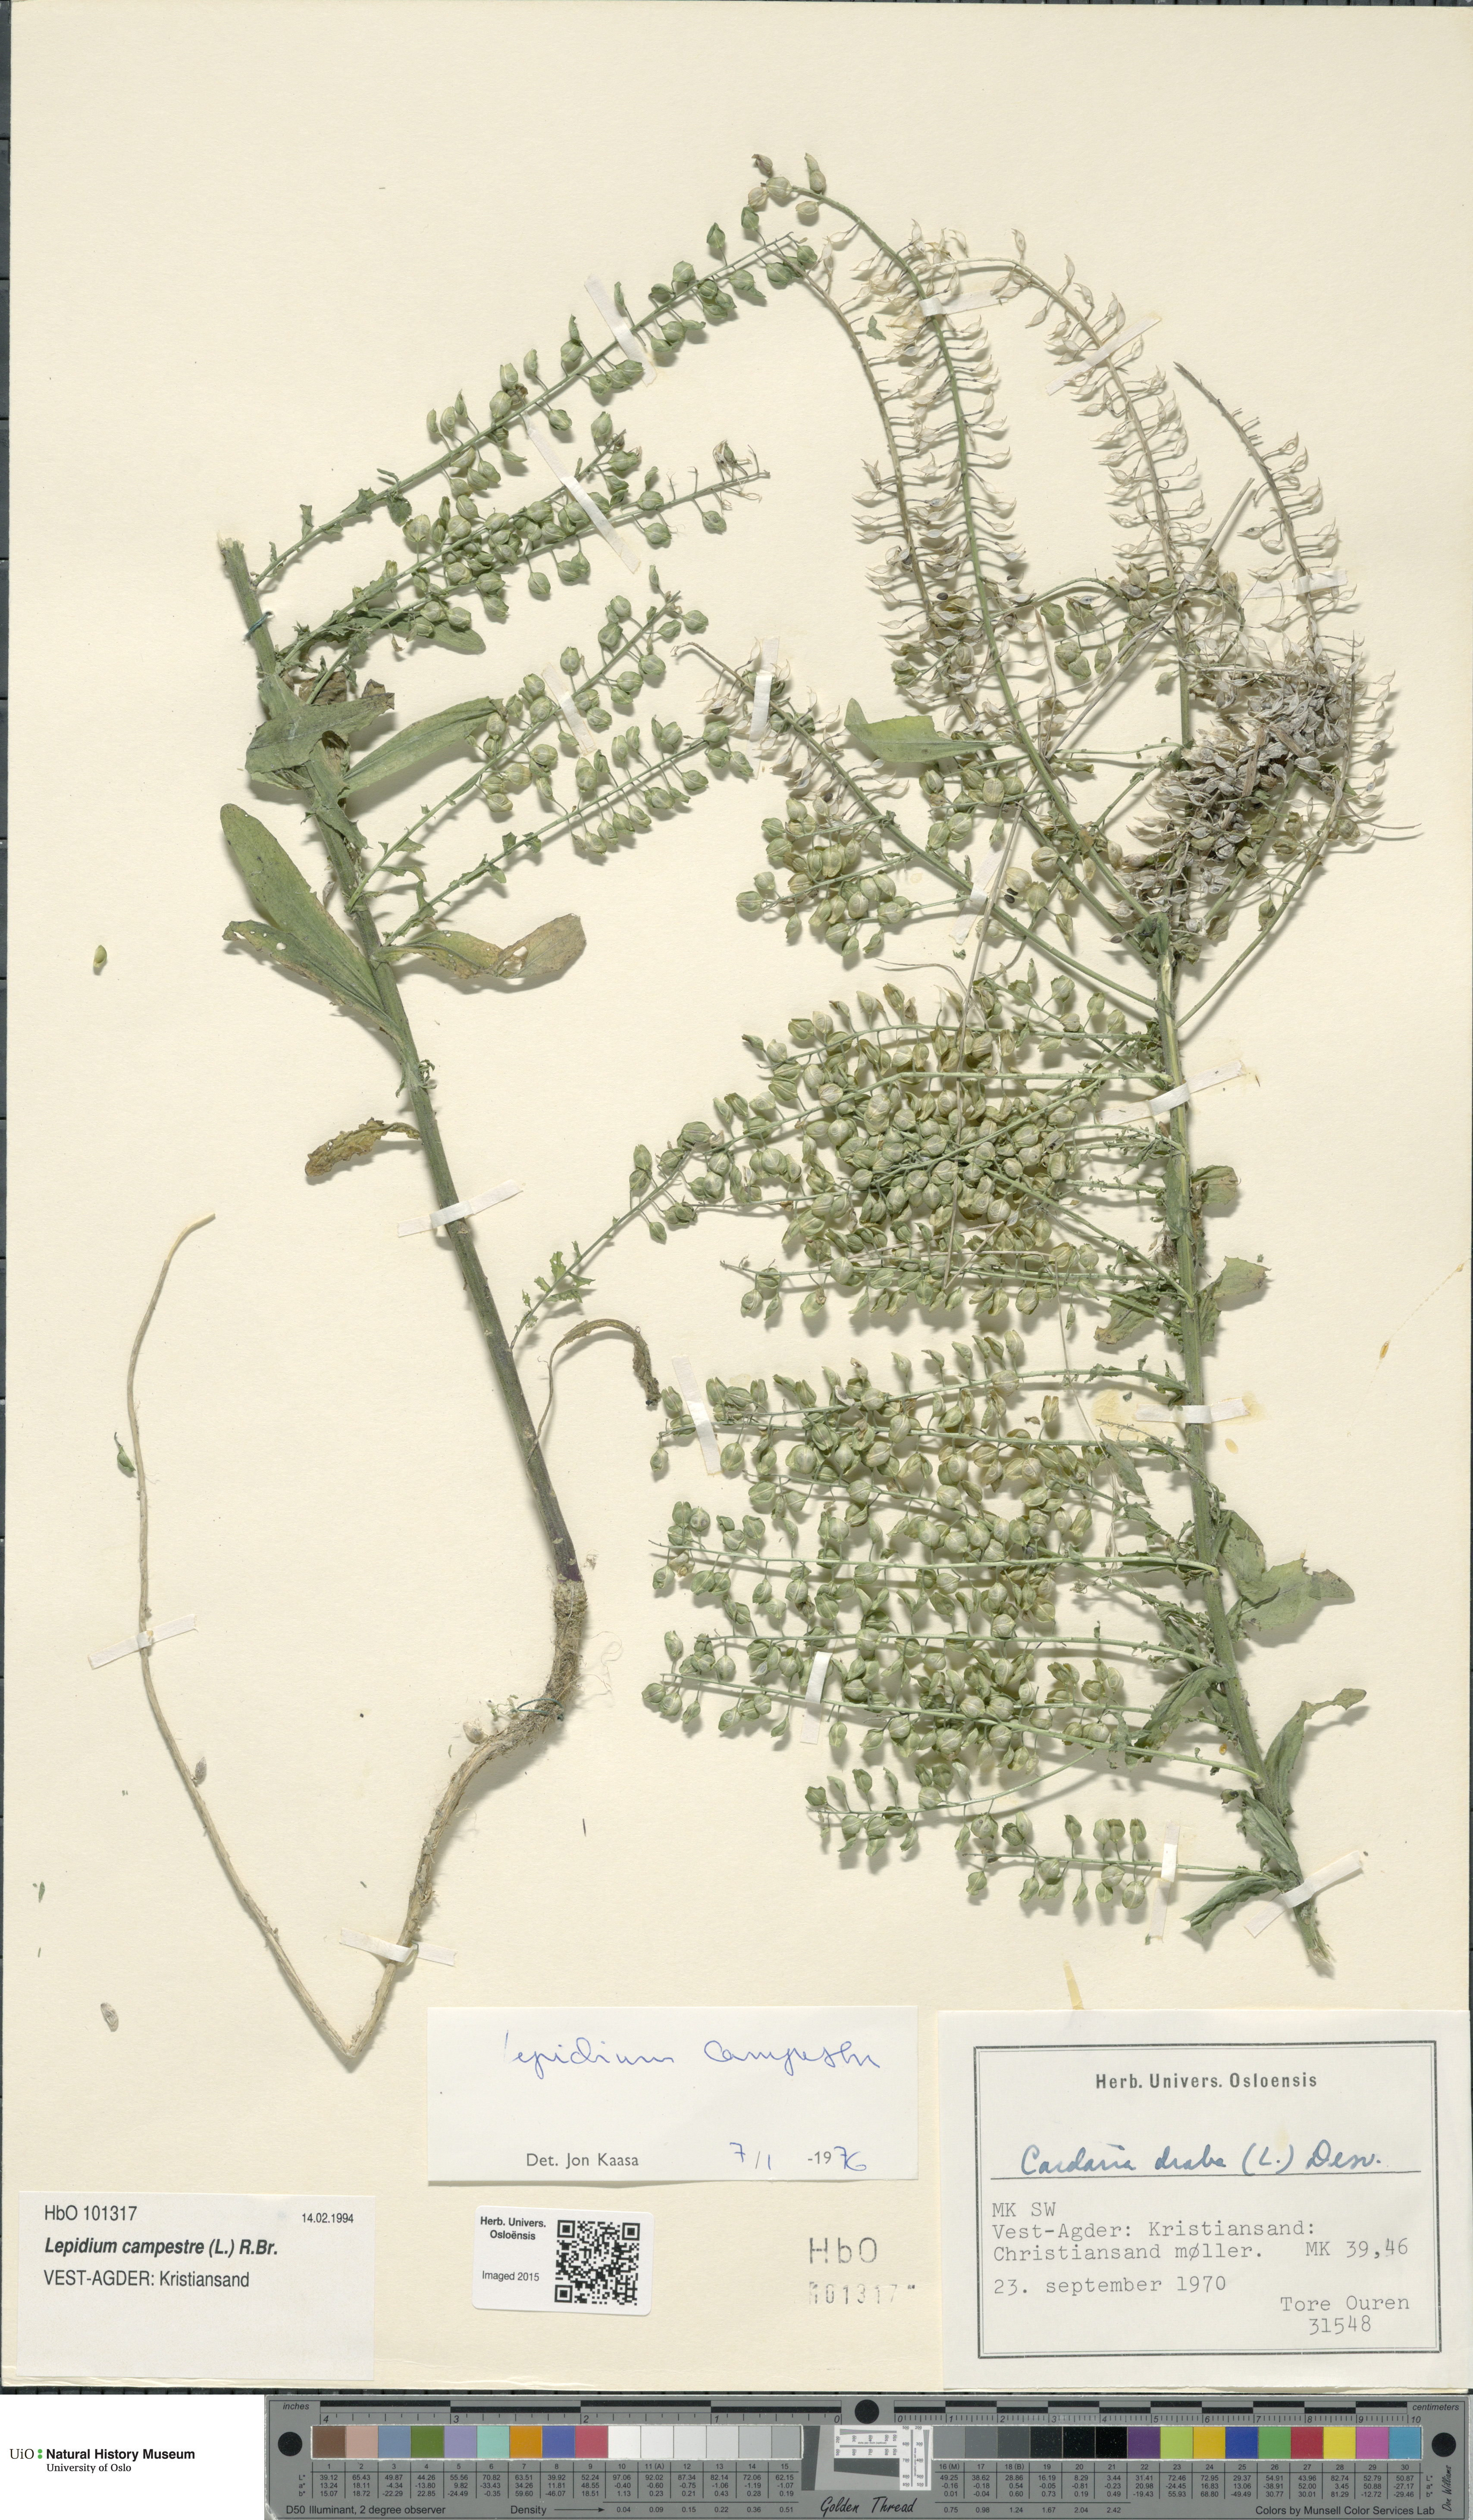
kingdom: Plantae
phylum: Tracheophyta
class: Magnoliopsida
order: Brassicales
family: Brassicaceae
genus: Lepidium
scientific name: Lepidium campestre
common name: Field pepperwort
